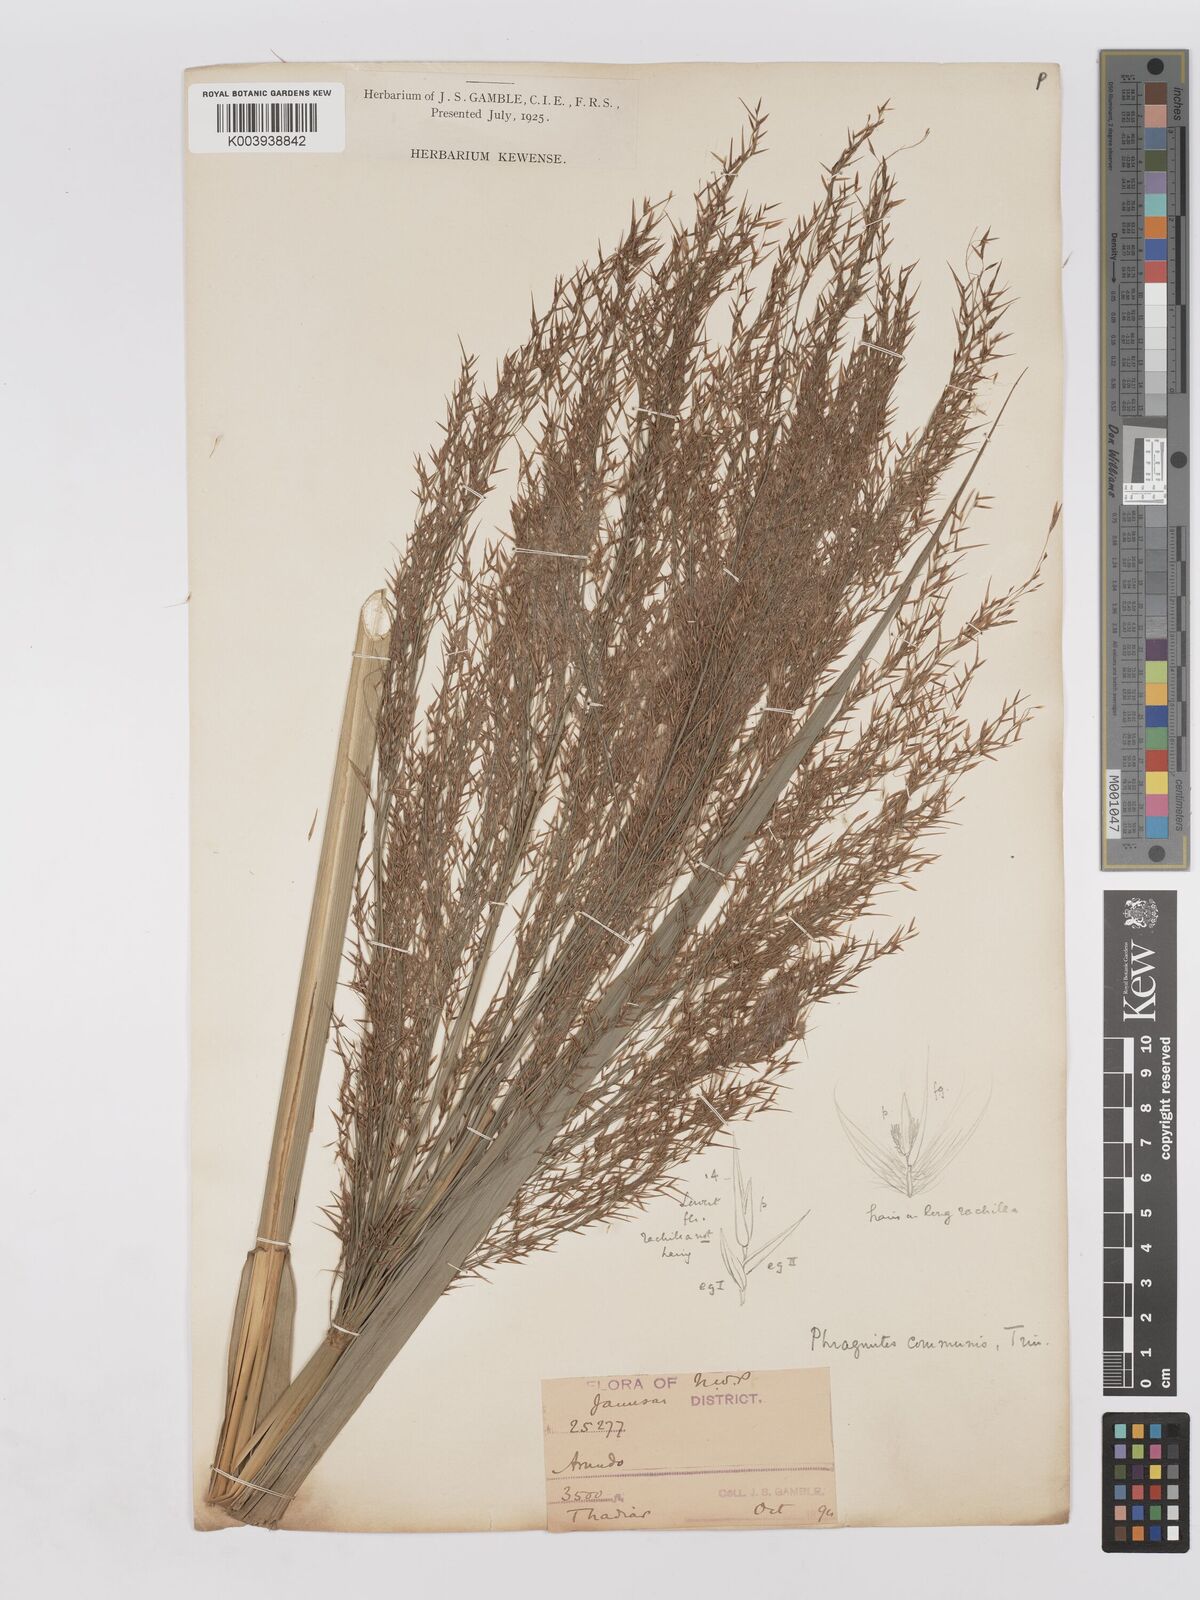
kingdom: Plantae
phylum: Tracheophyta
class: Liliopsida
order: Poales
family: Poaceae
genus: Phragmites
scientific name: Phragmites karka
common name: Tropical reed
